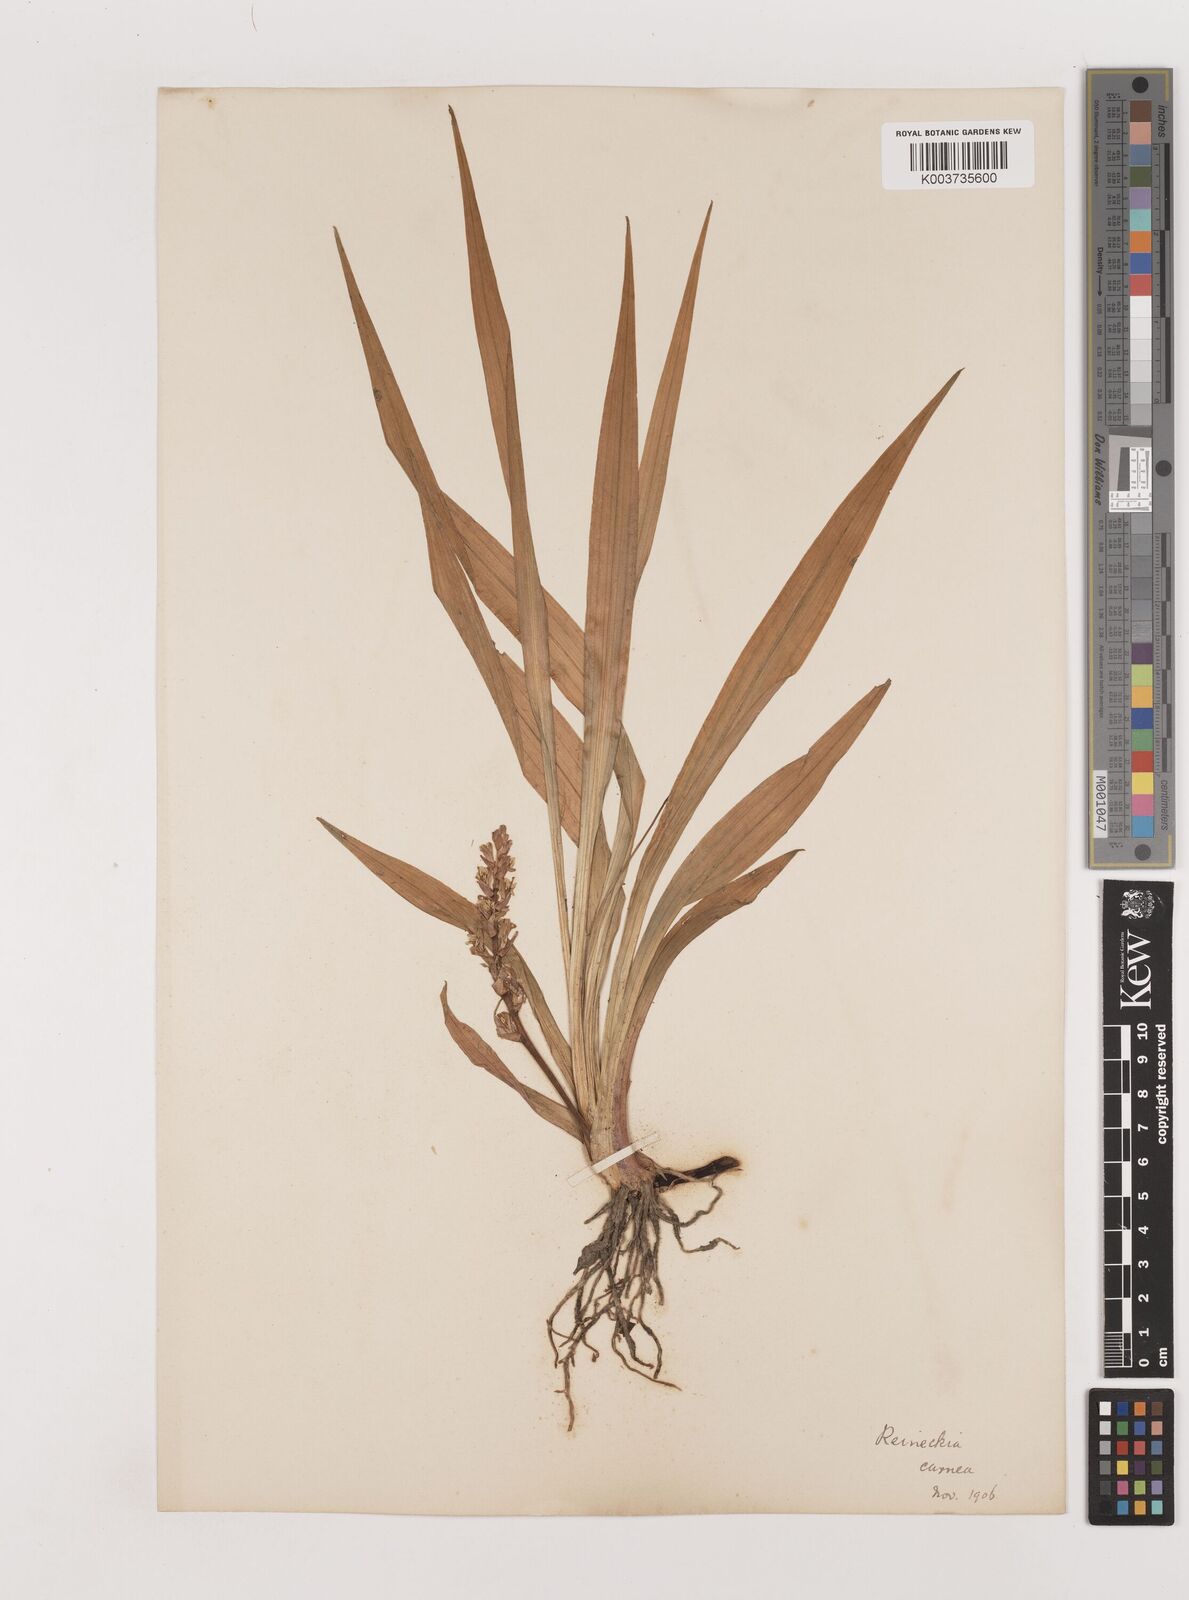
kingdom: Plantae
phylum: Tracheophyta
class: Liliopsida
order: Asparagales
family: Asparagaceae
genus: Reineckea
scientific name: Reineckea carnea
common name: Reineckea
